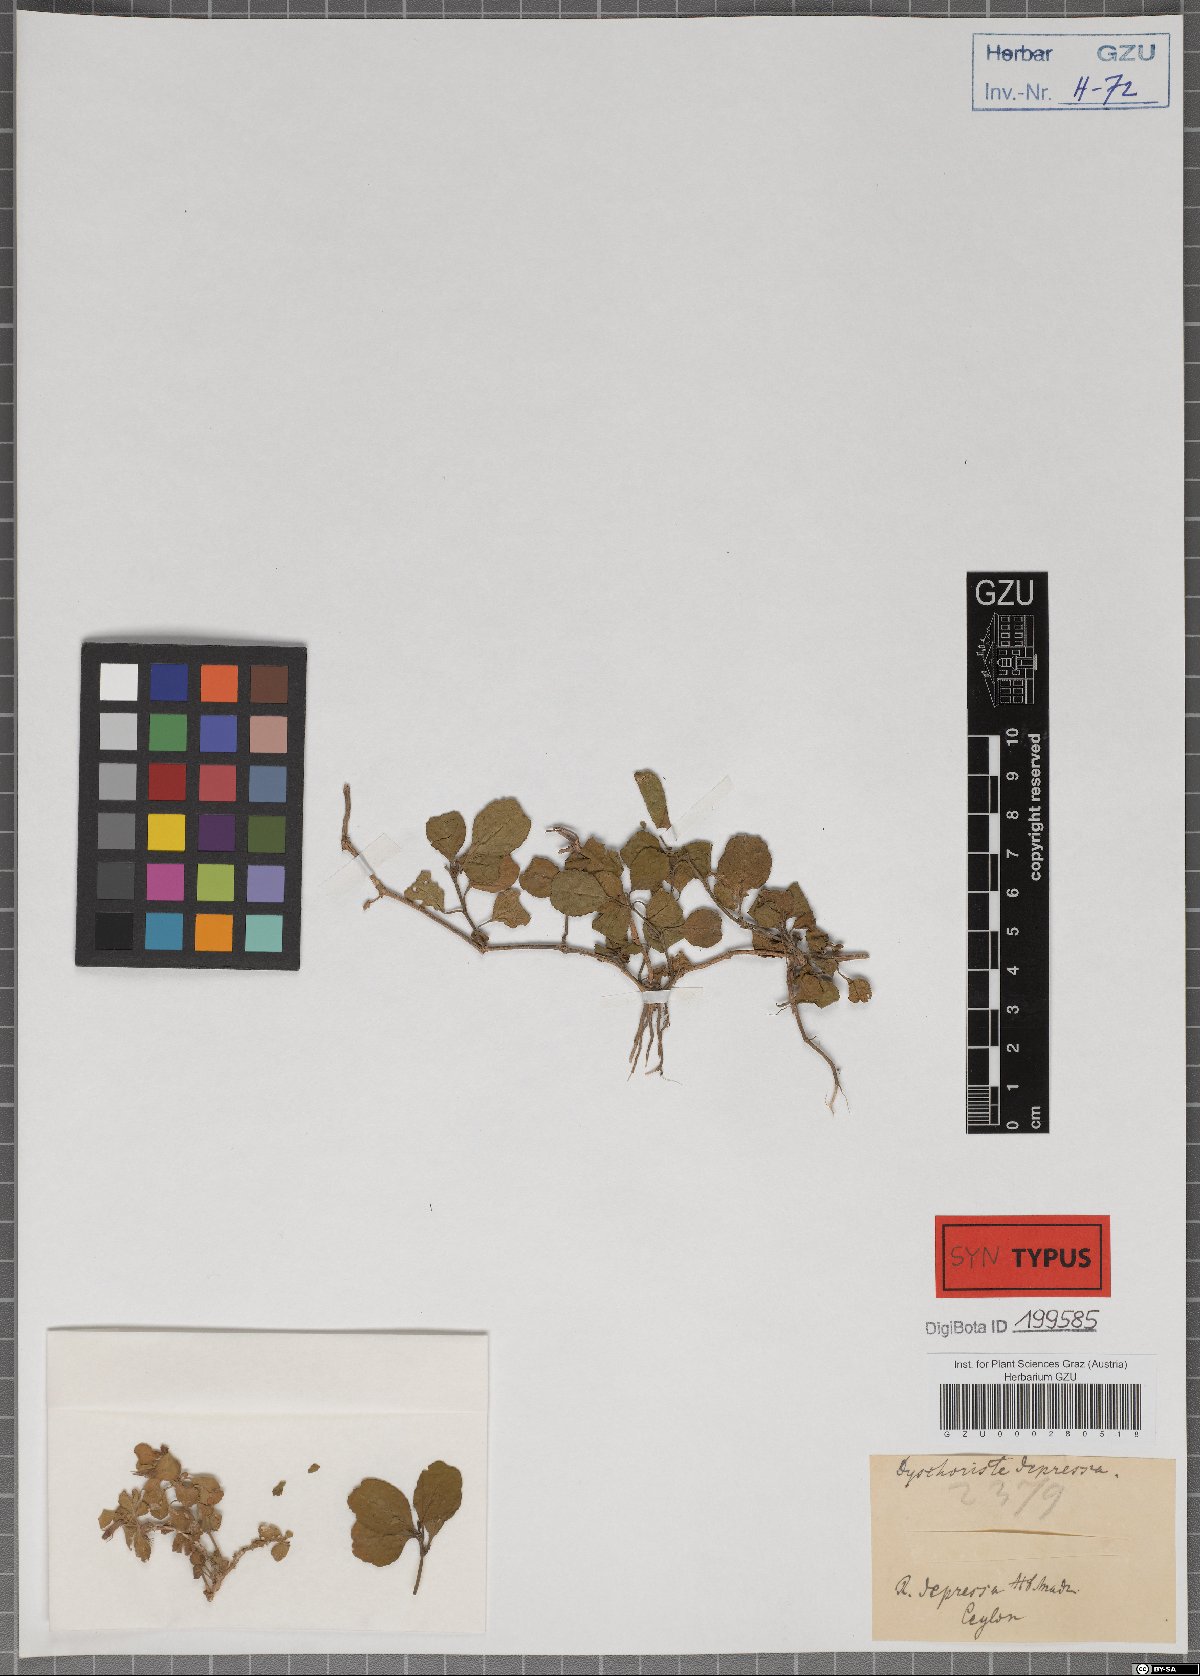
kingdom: Plantae
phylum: Tracheophyta
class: Magnoliopsida
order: Lamiales
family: Acanthaceae
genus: Hygrophila
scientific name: Hygrophila erecta
